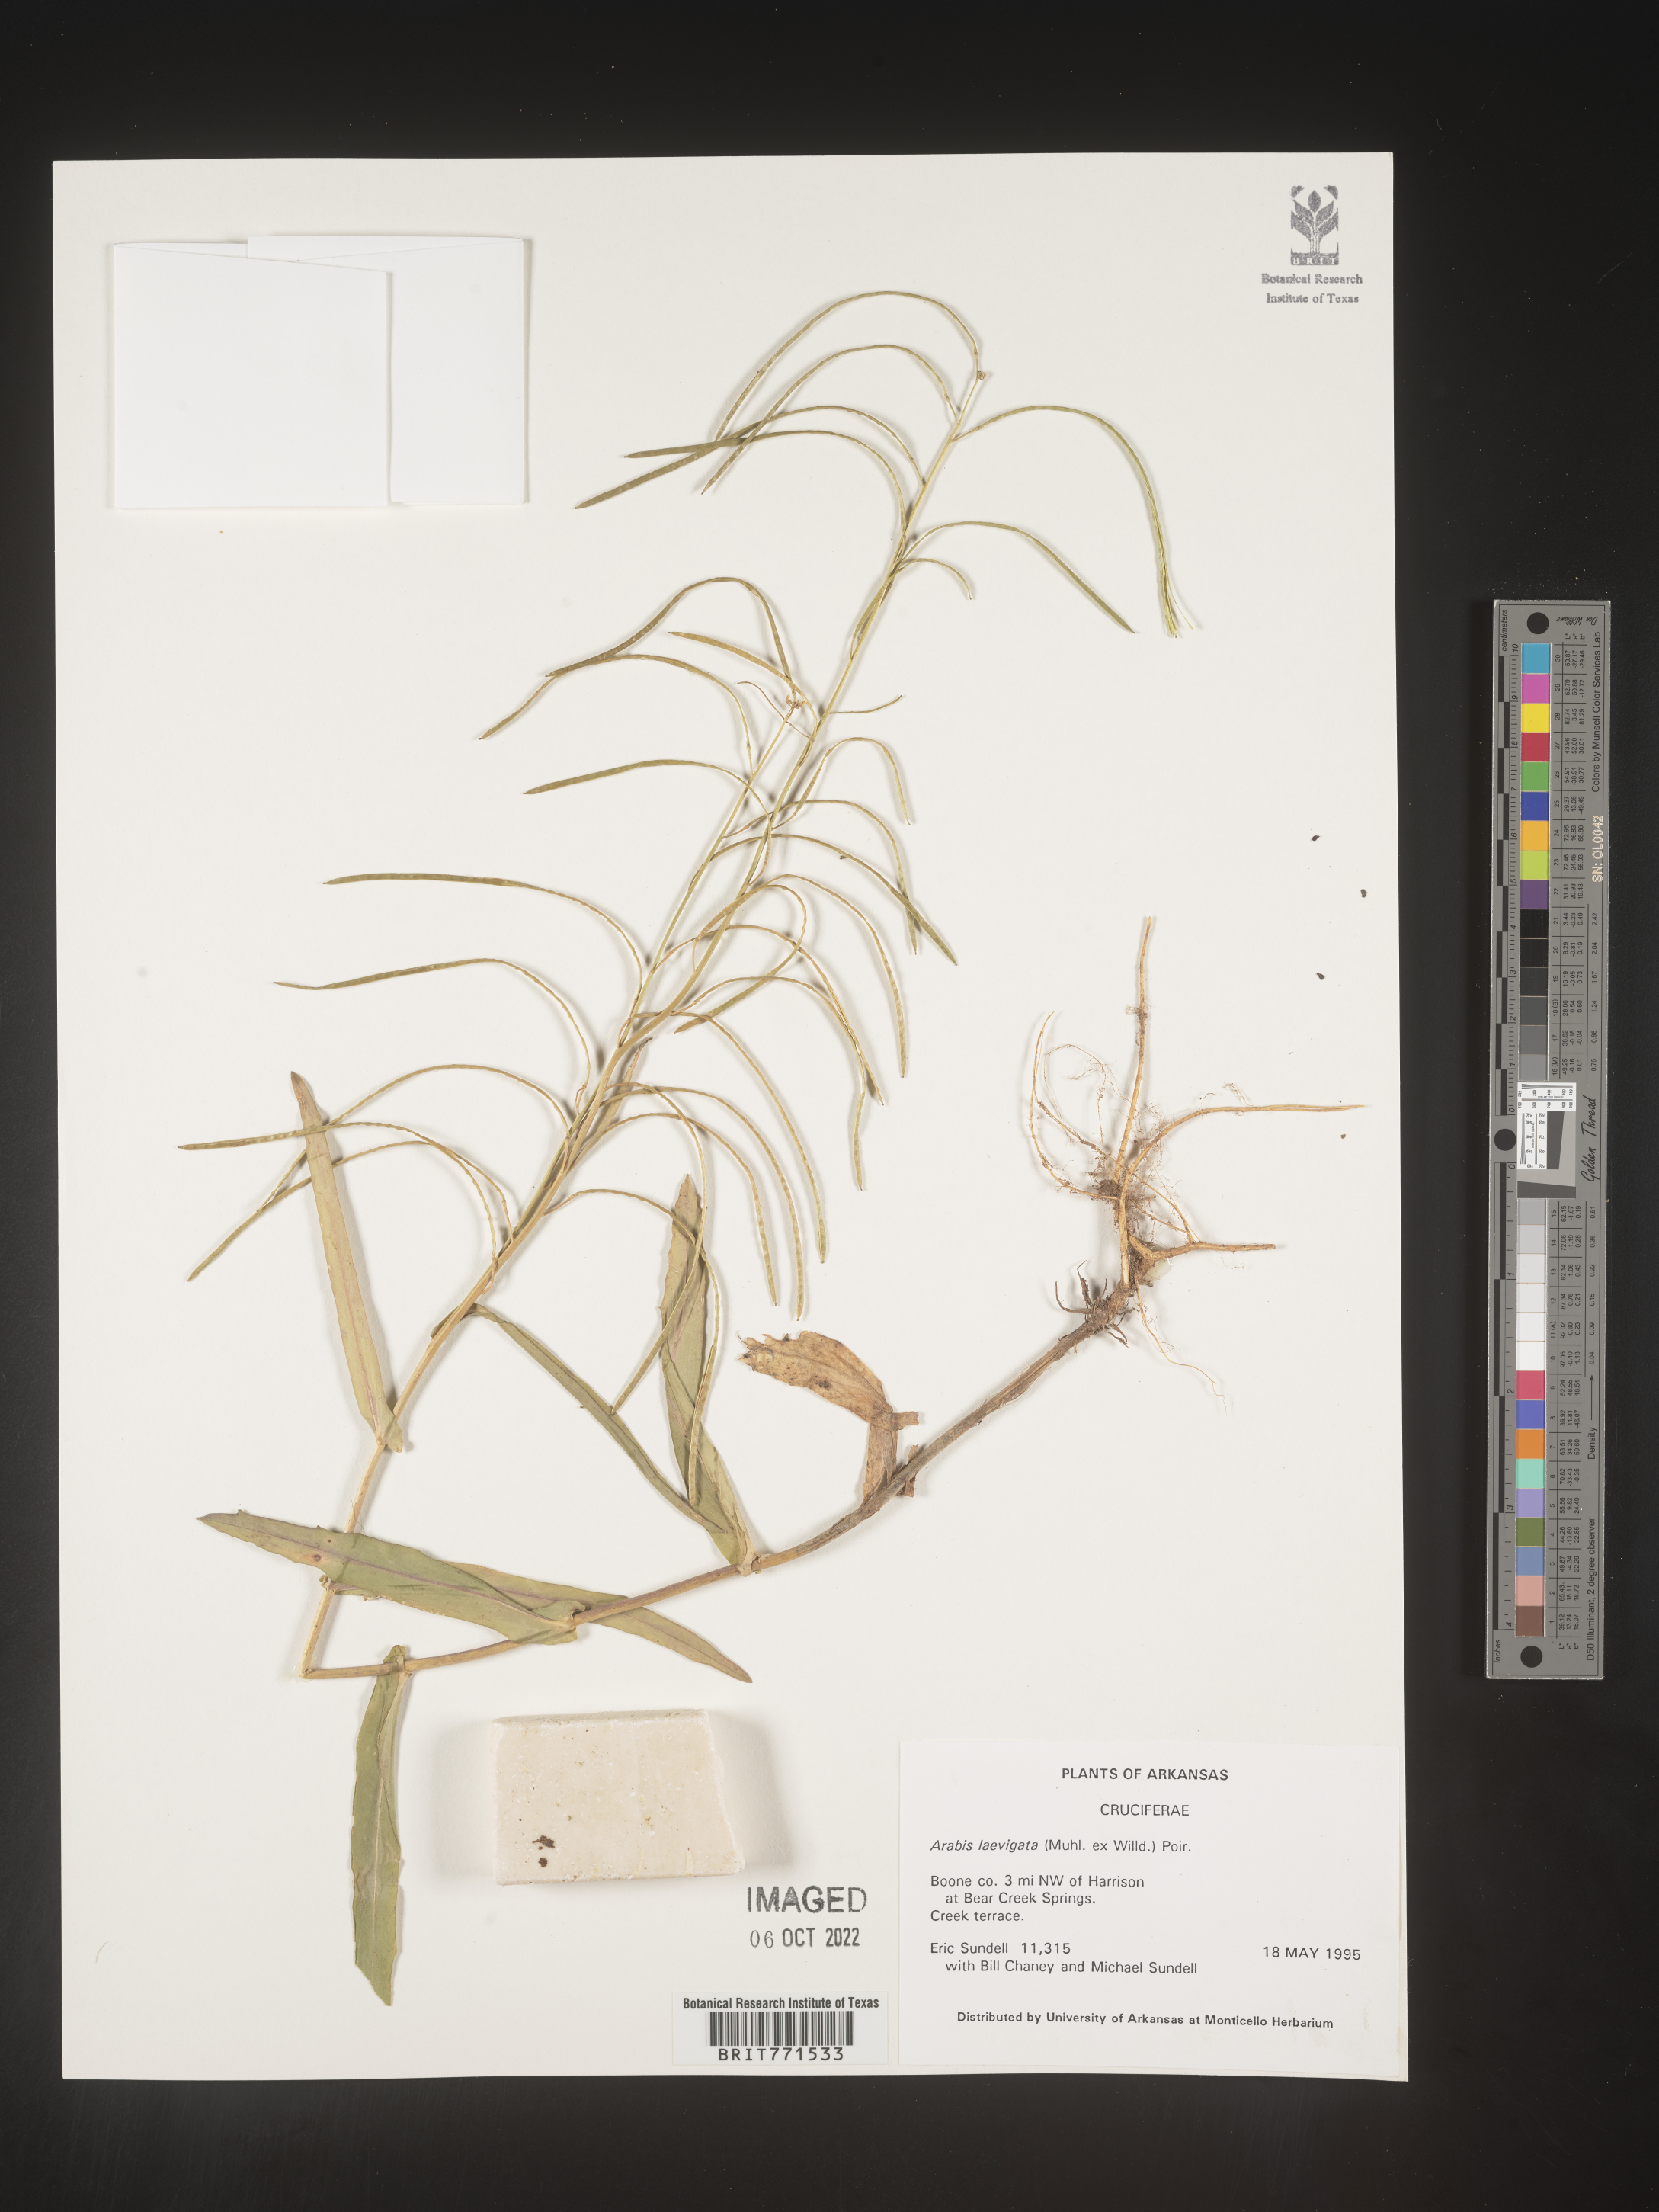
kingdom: Plantae
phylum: Tracheophyta
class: Magnoliopsida
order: Brassicales
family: Brassicaceae
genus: Arabis
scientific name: Arabis laevigata
